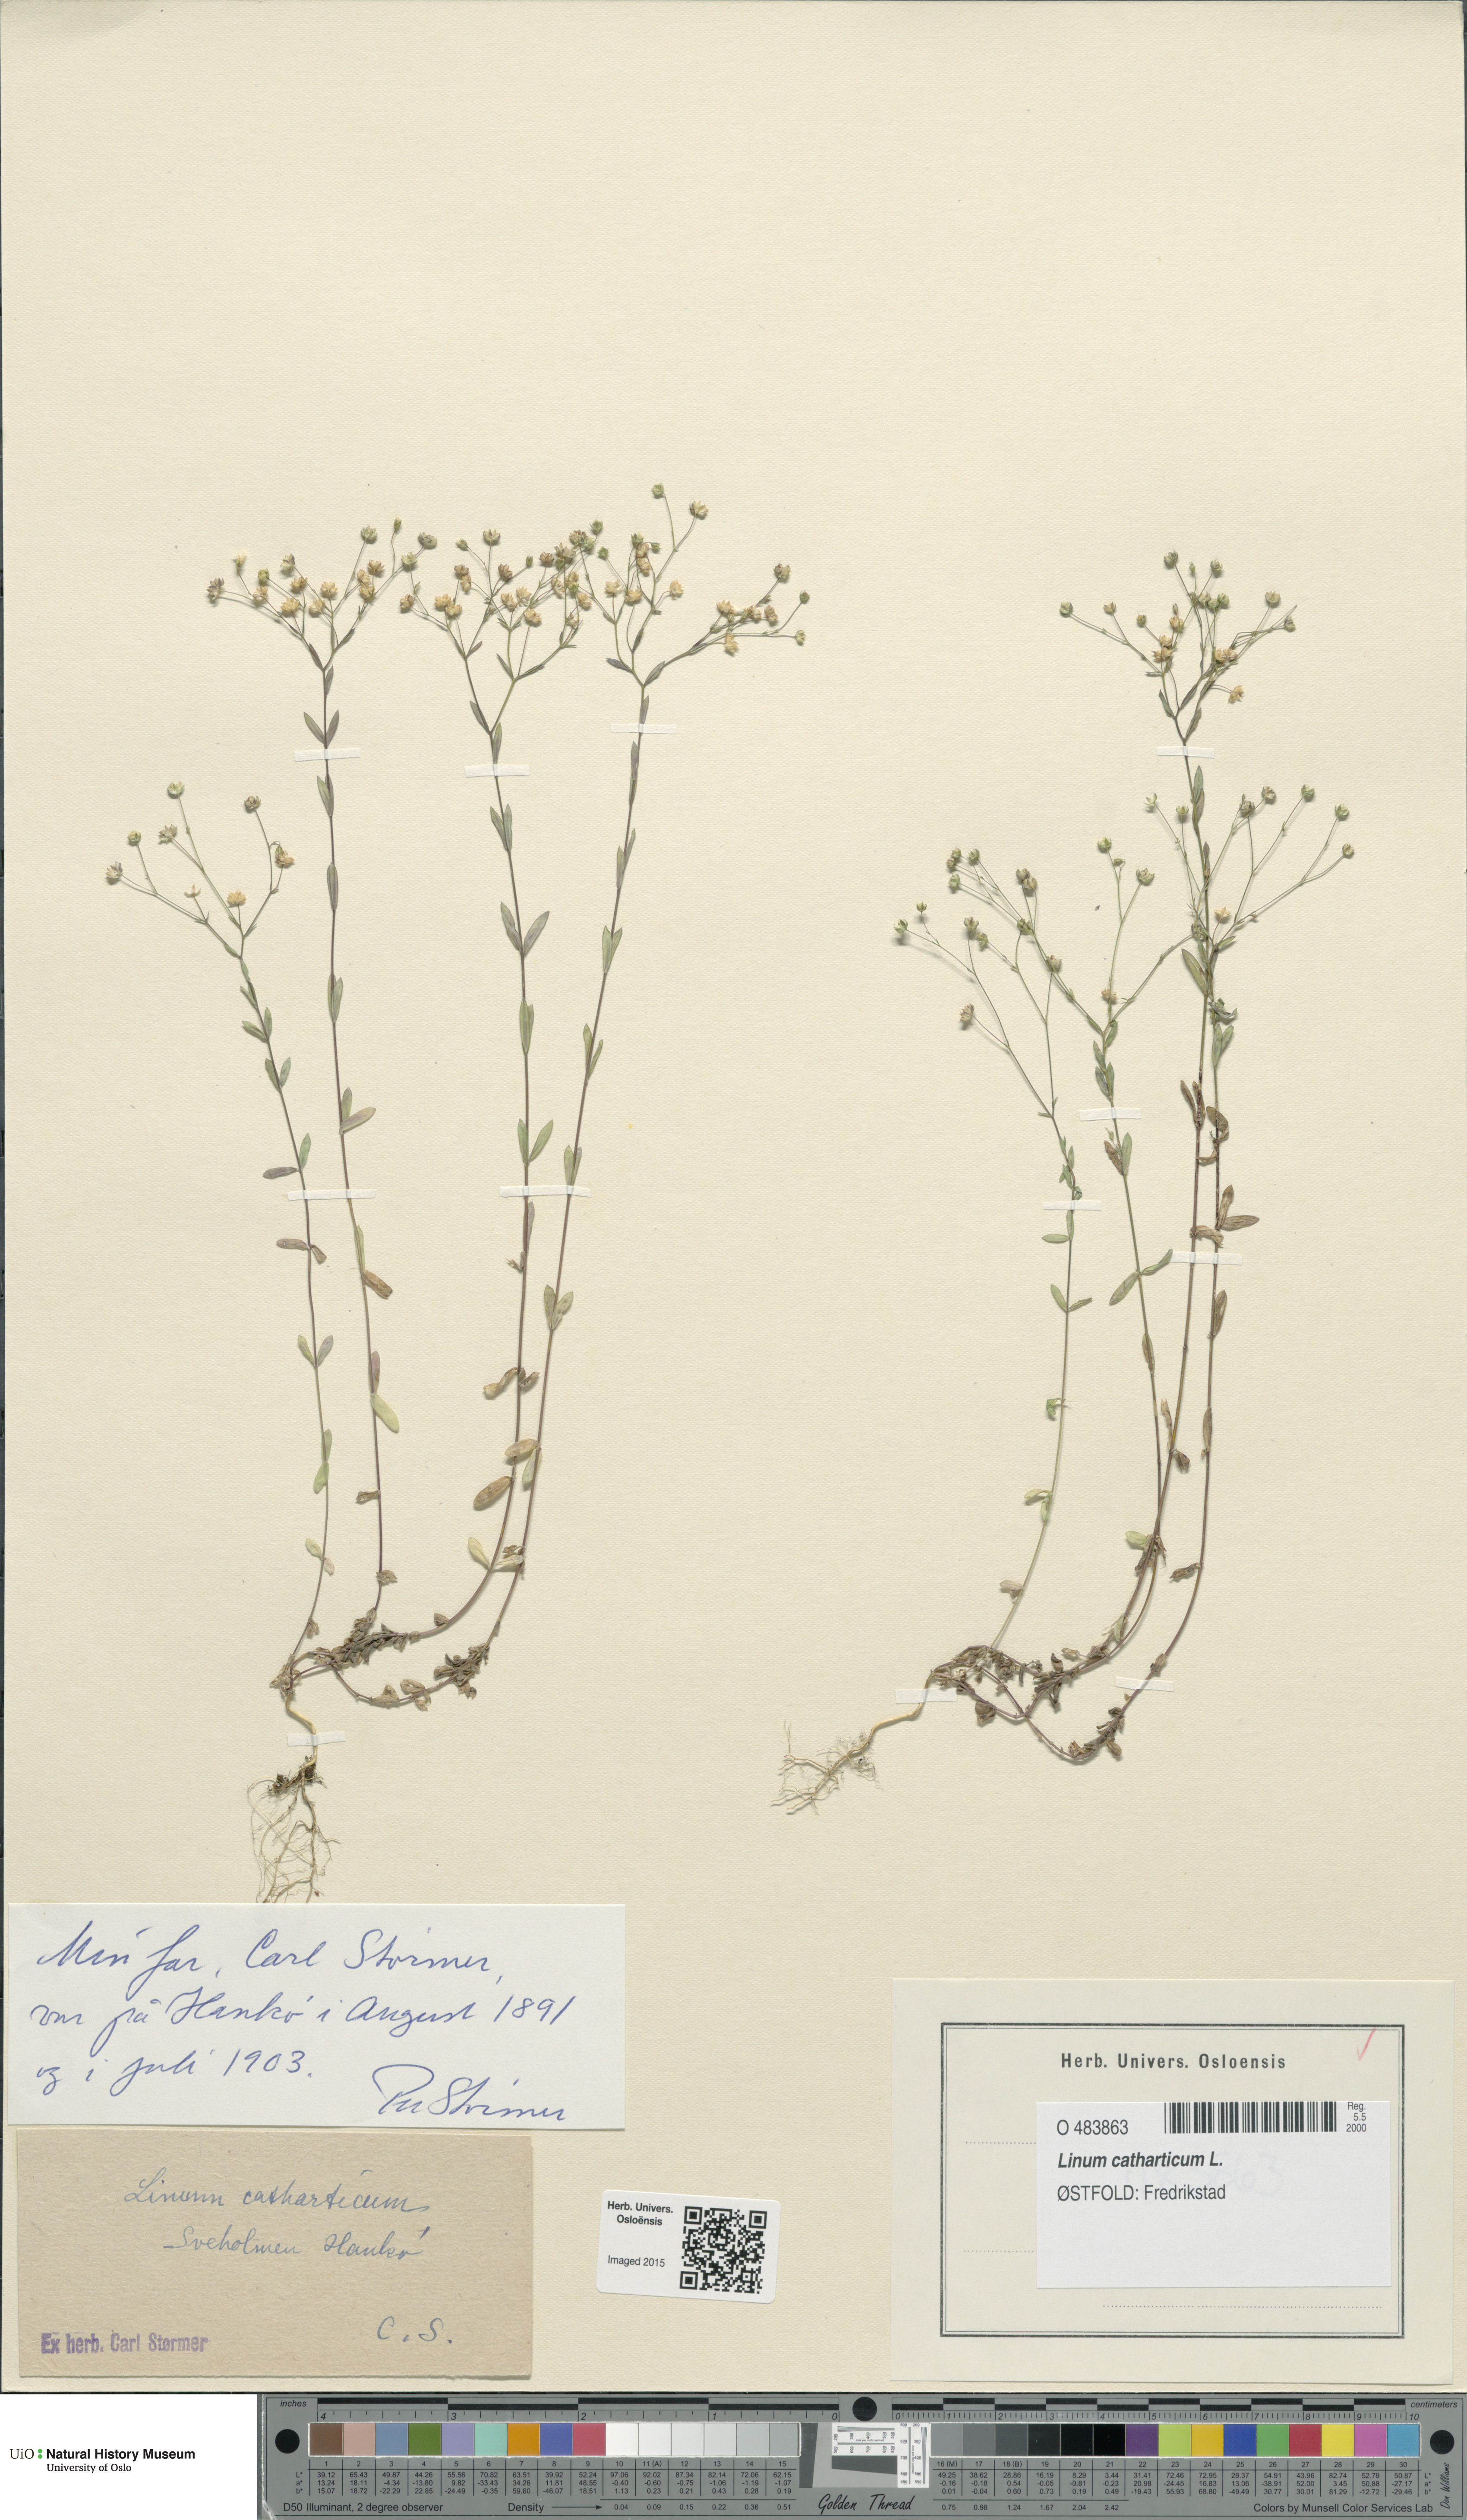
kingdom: Plantae
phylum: Tracheophyta
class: Magnoliopsida
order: Malpighiales
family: Linaceae
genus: Linum
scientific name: Linum catharticum
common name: Fairy flax
